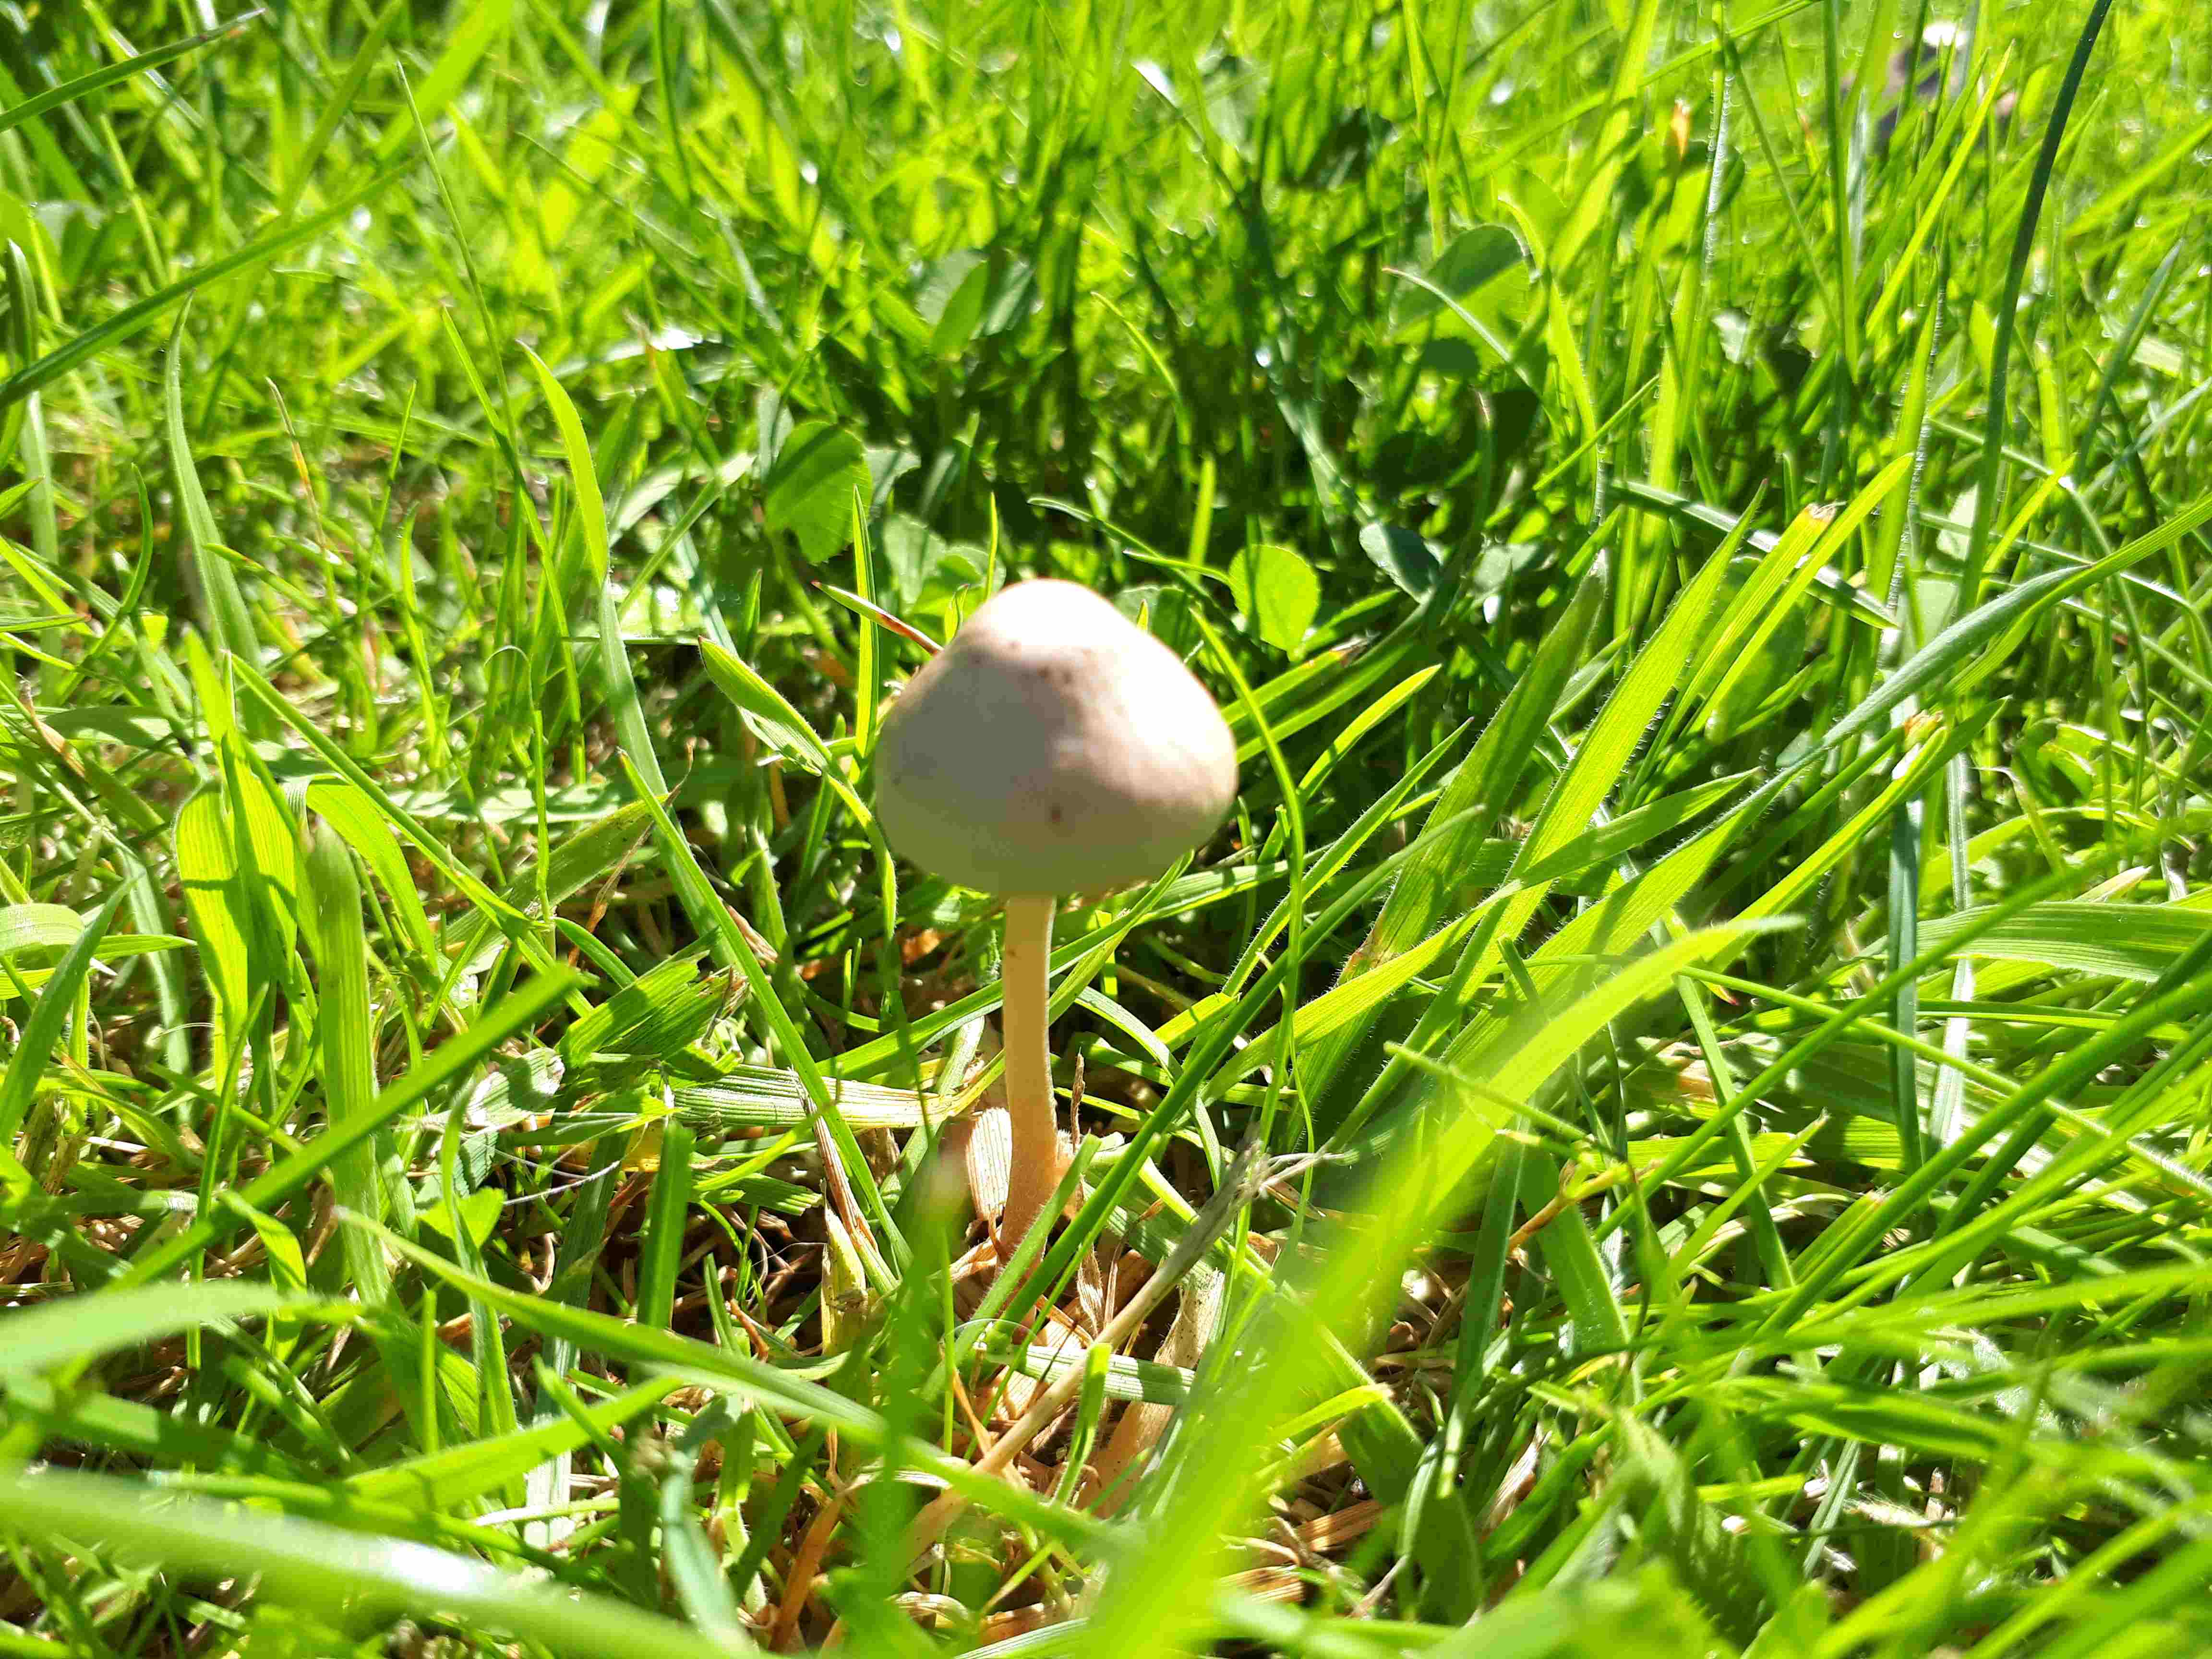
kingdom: Fungi
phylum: Basidiomycota
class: Agaricomycetes
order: Agaricales
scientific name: Agaricales
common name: champignonordenen
